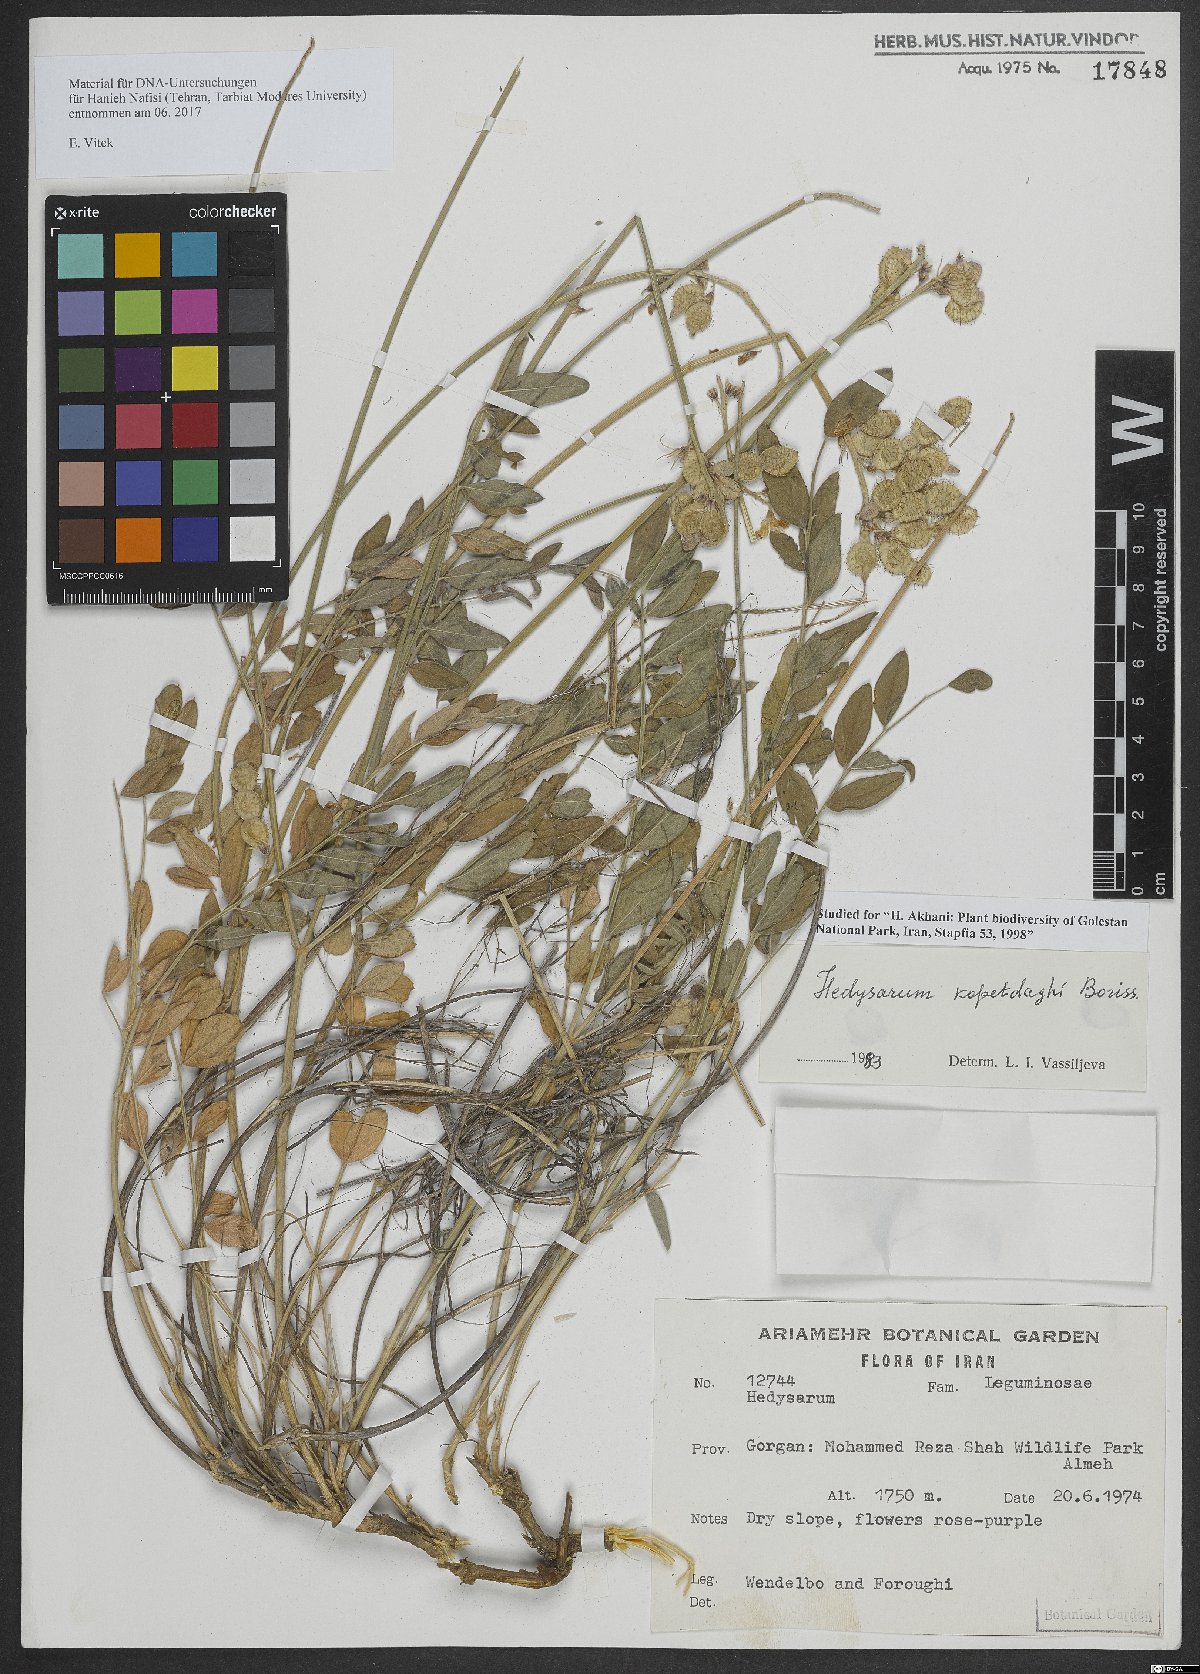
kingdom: Plantae
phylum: Tracheophyta
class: Magnoliopsida
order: Fabales
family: Fabaceae
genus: Hedysarum
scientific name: Hedysarum kopetdaghi
